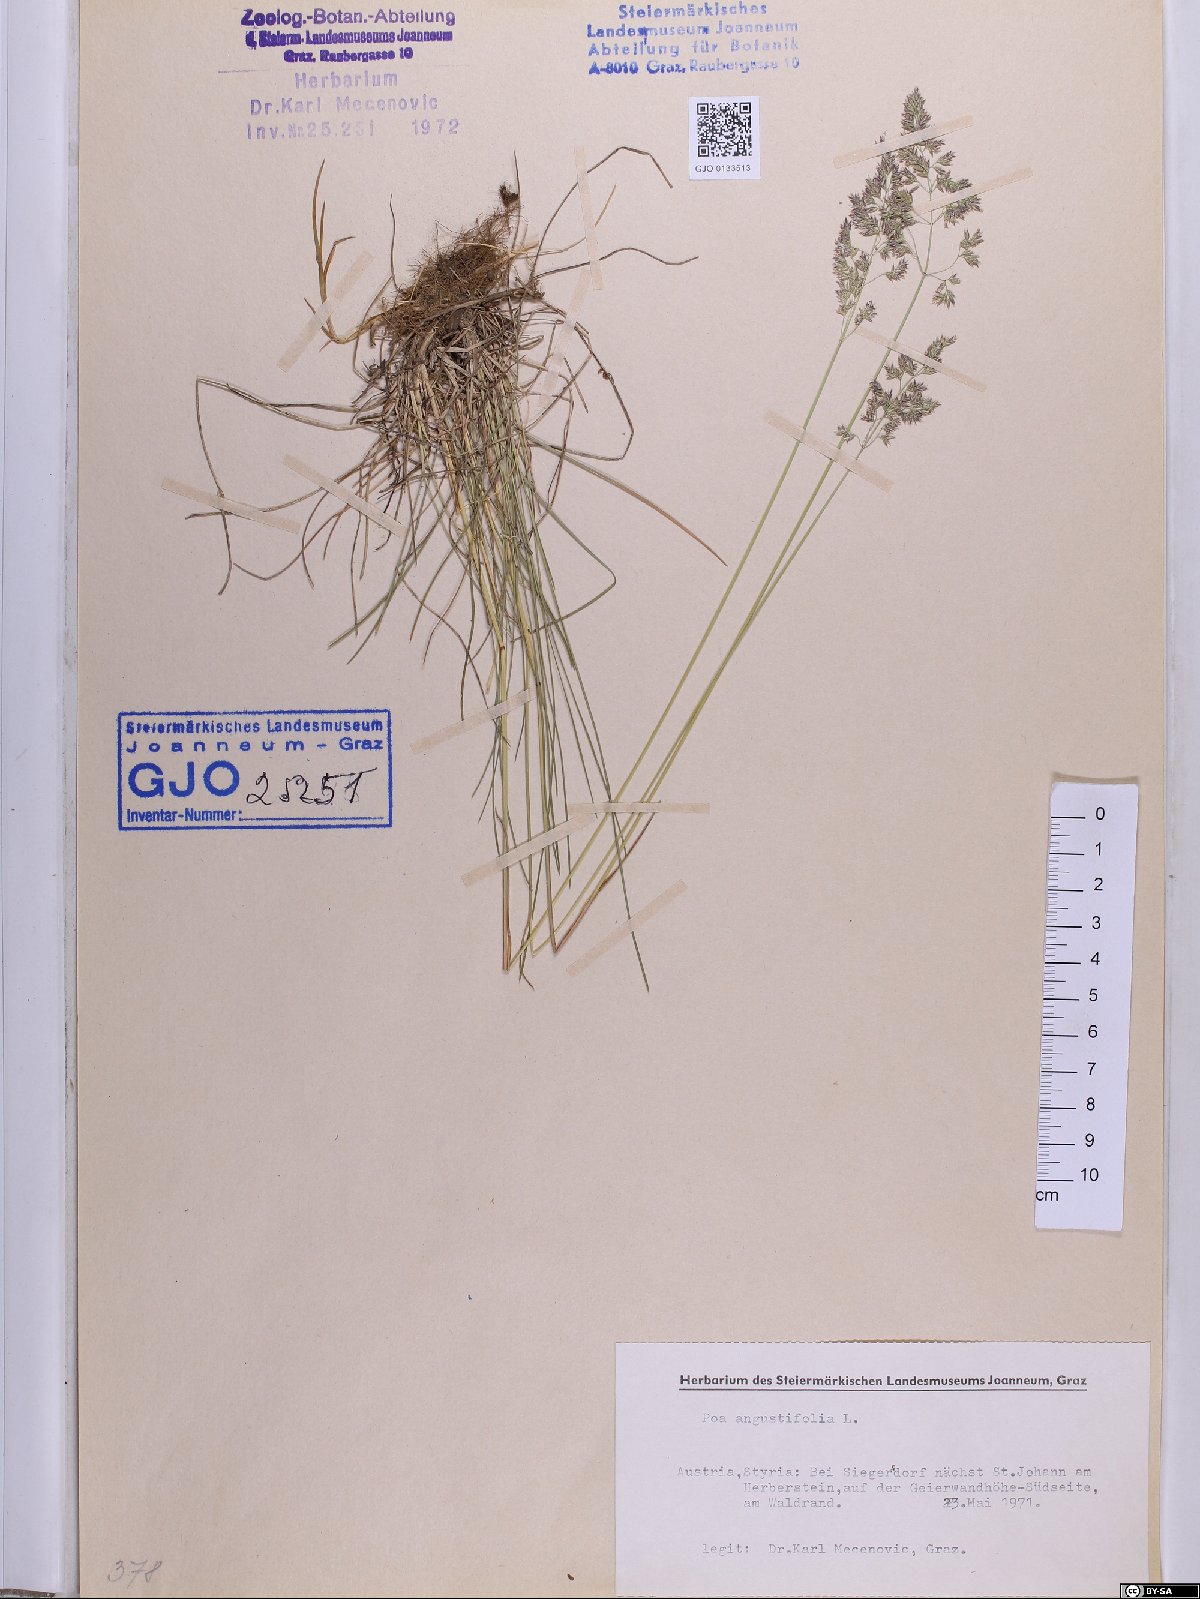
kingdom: Plantae
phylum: Tracheophyta
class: Liliopsida
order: Poales
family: Poaceae
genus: Poa
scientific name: Poa angustifolia
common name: Narrow-leaved meadow-grass
